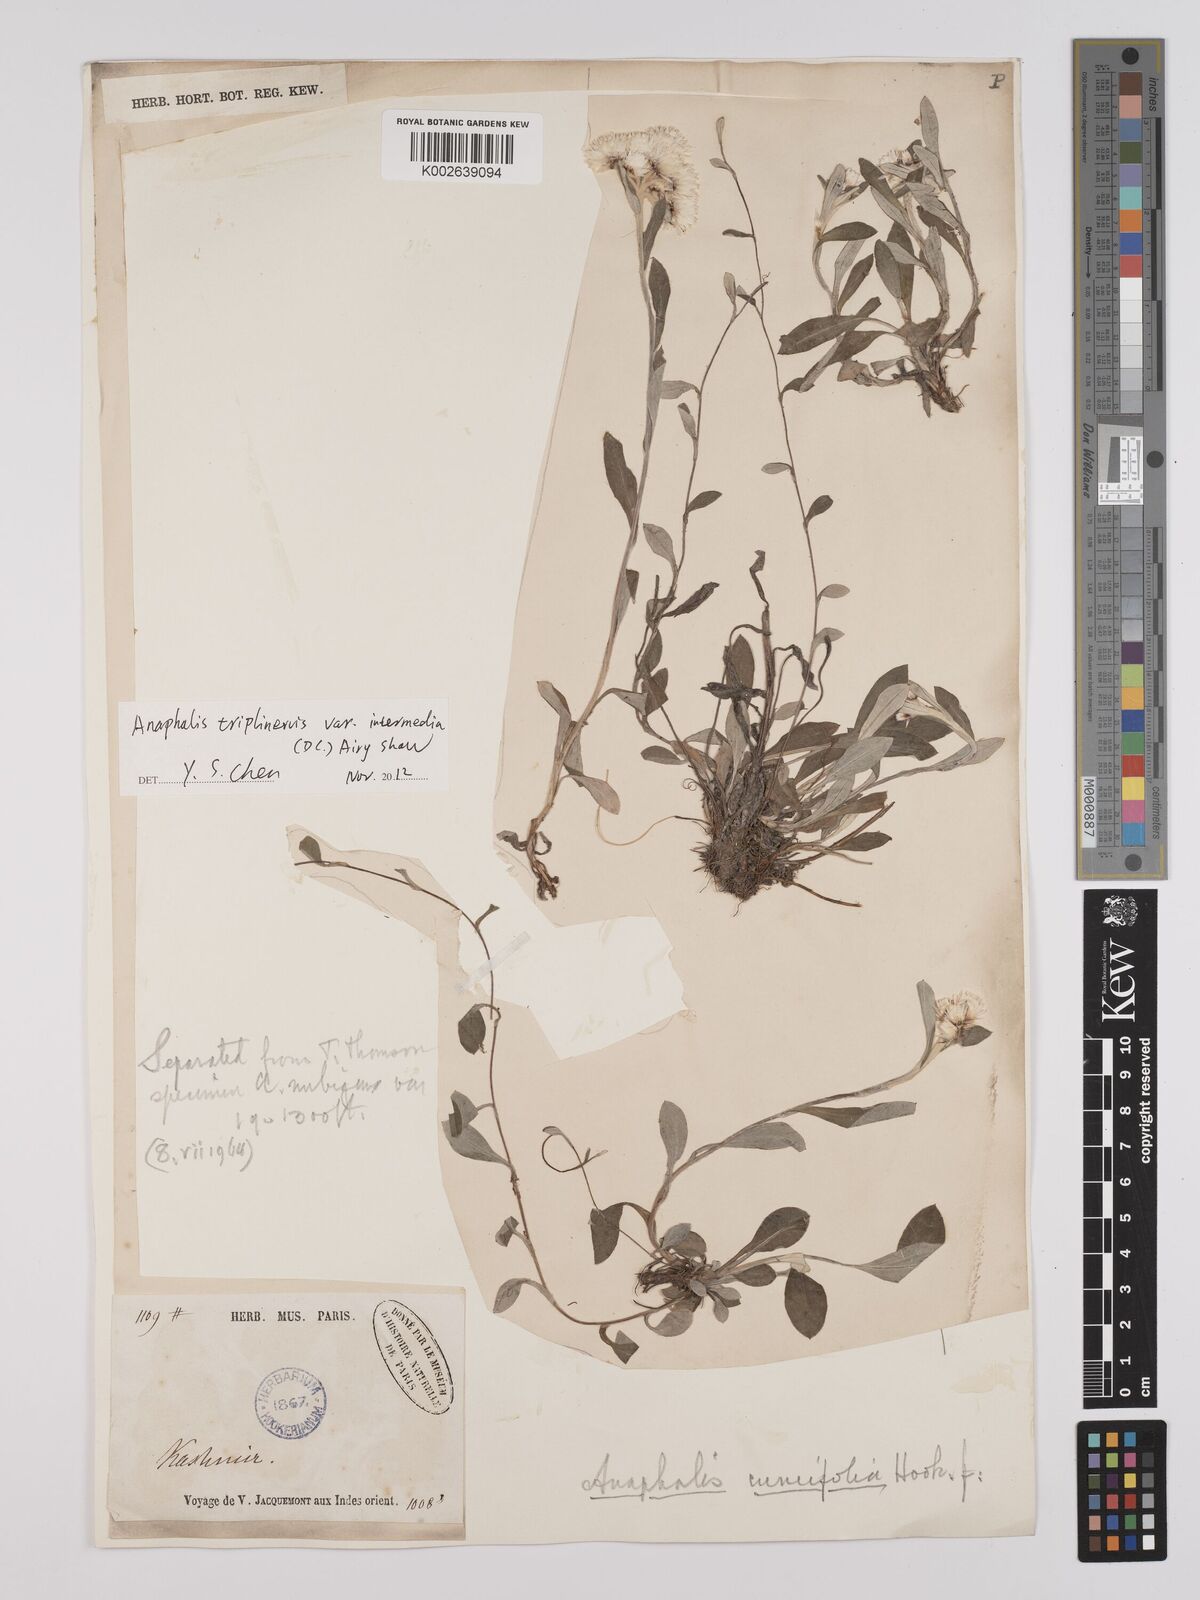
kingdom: Plantae
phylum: Tracheophyta
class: Magnoliopsida
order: Asterales
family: Asteraceae
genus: Anaphalioides
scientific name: Anaphalioides trinervis
